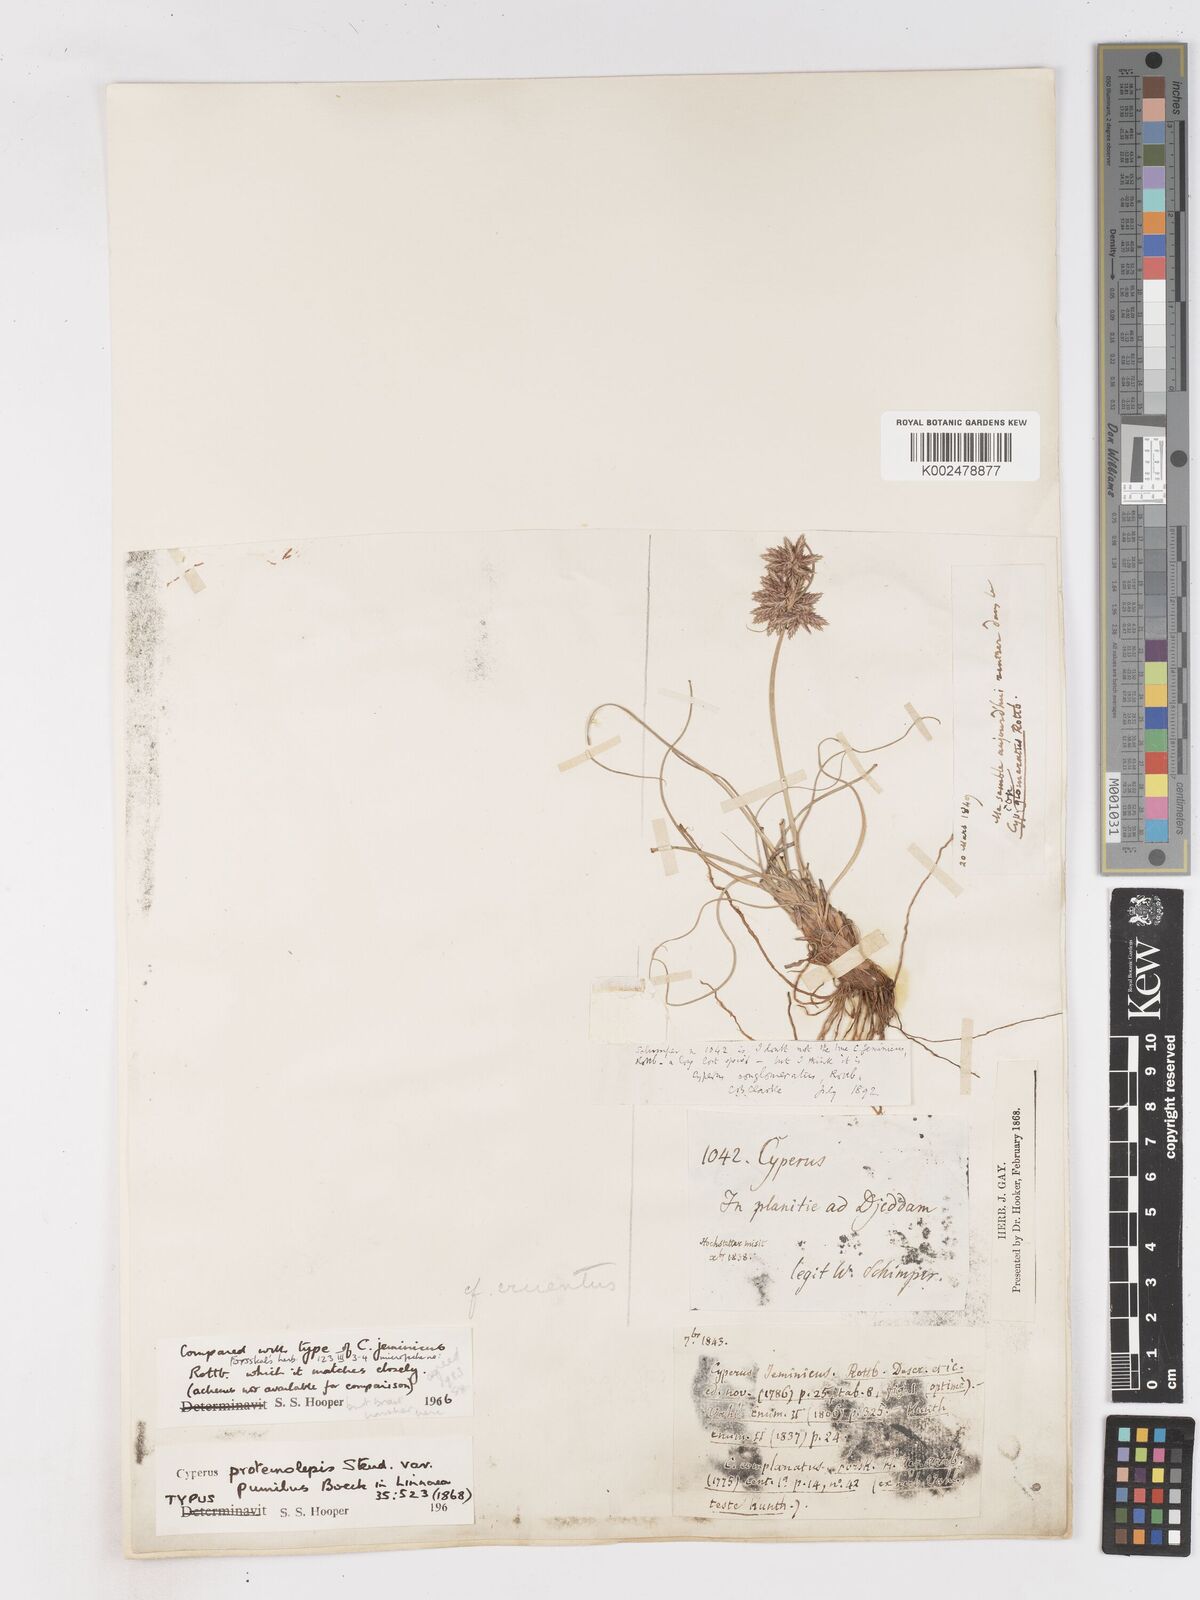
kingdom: Plantae
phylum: Tracheophyta
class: Liliopsida
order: Poales
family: Cyperaceae
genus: Cyperus
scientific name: Cyperus jeminicus
